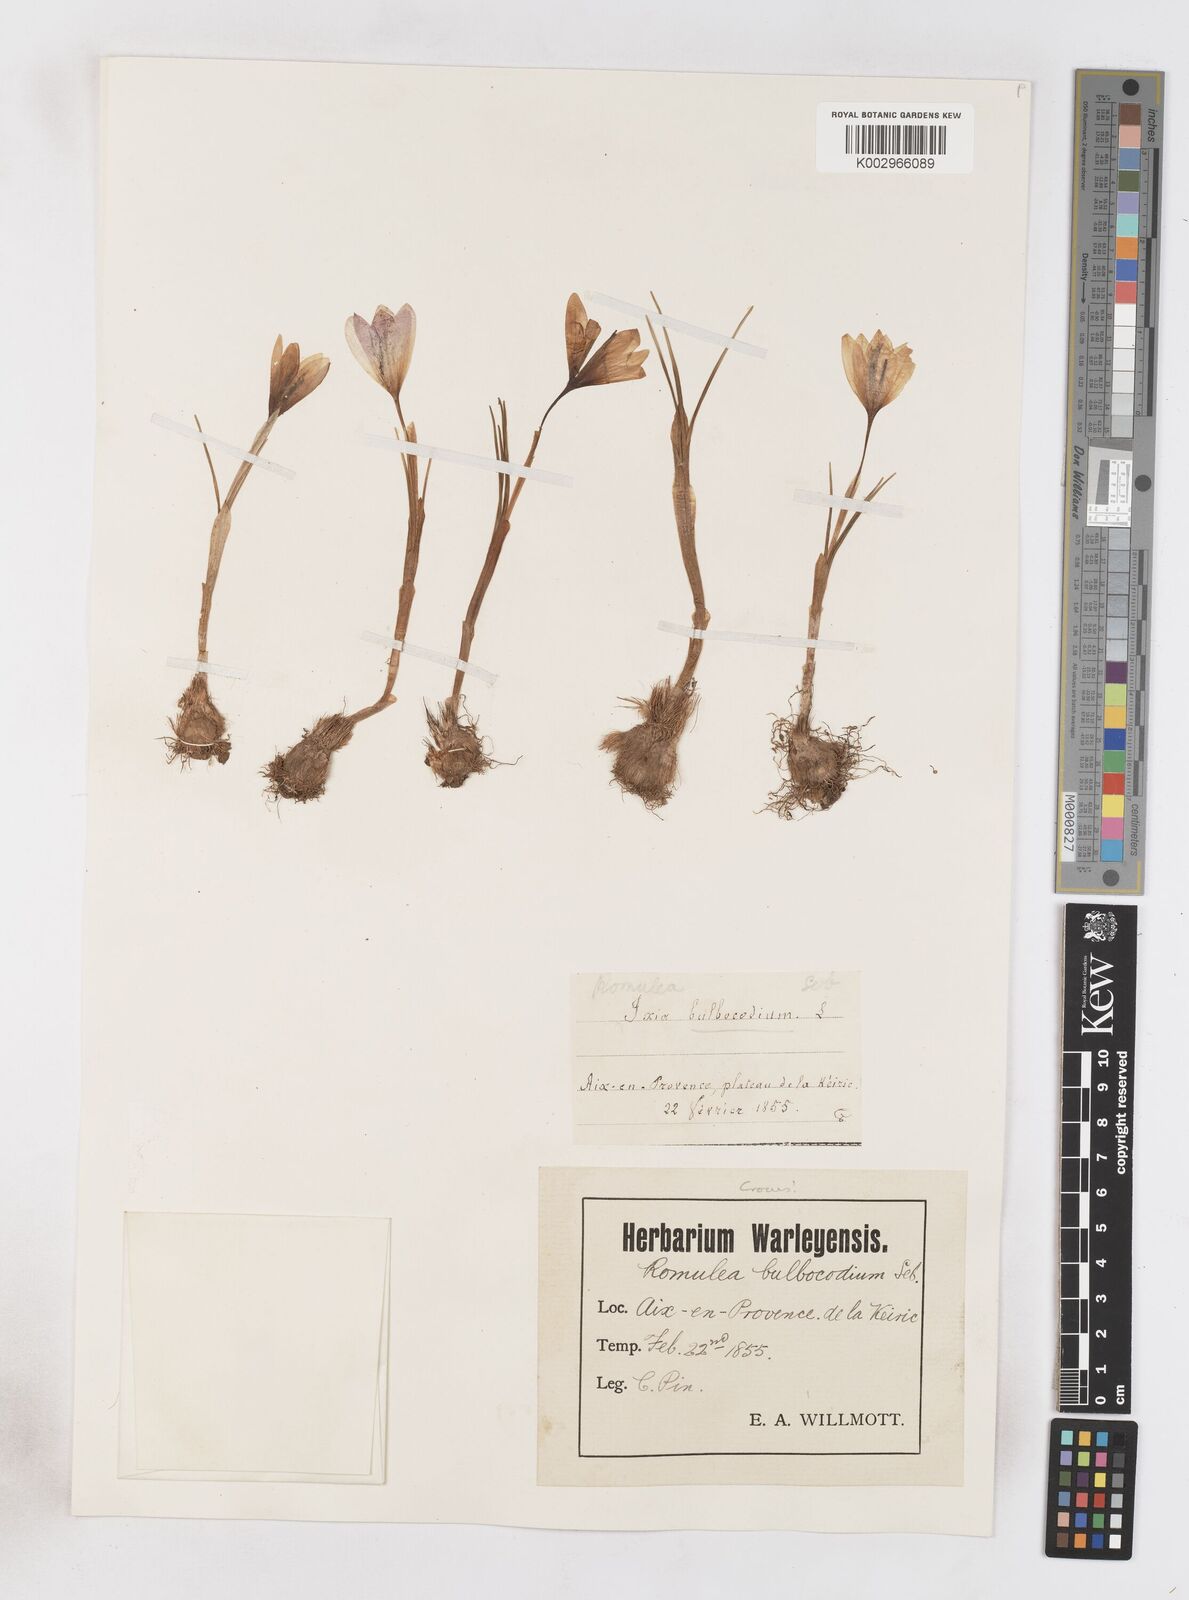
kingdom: Plantae
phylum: Tracheophyta
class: Liliopsida
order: Asparagales
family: Iridaceae
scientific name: Iridaceae
